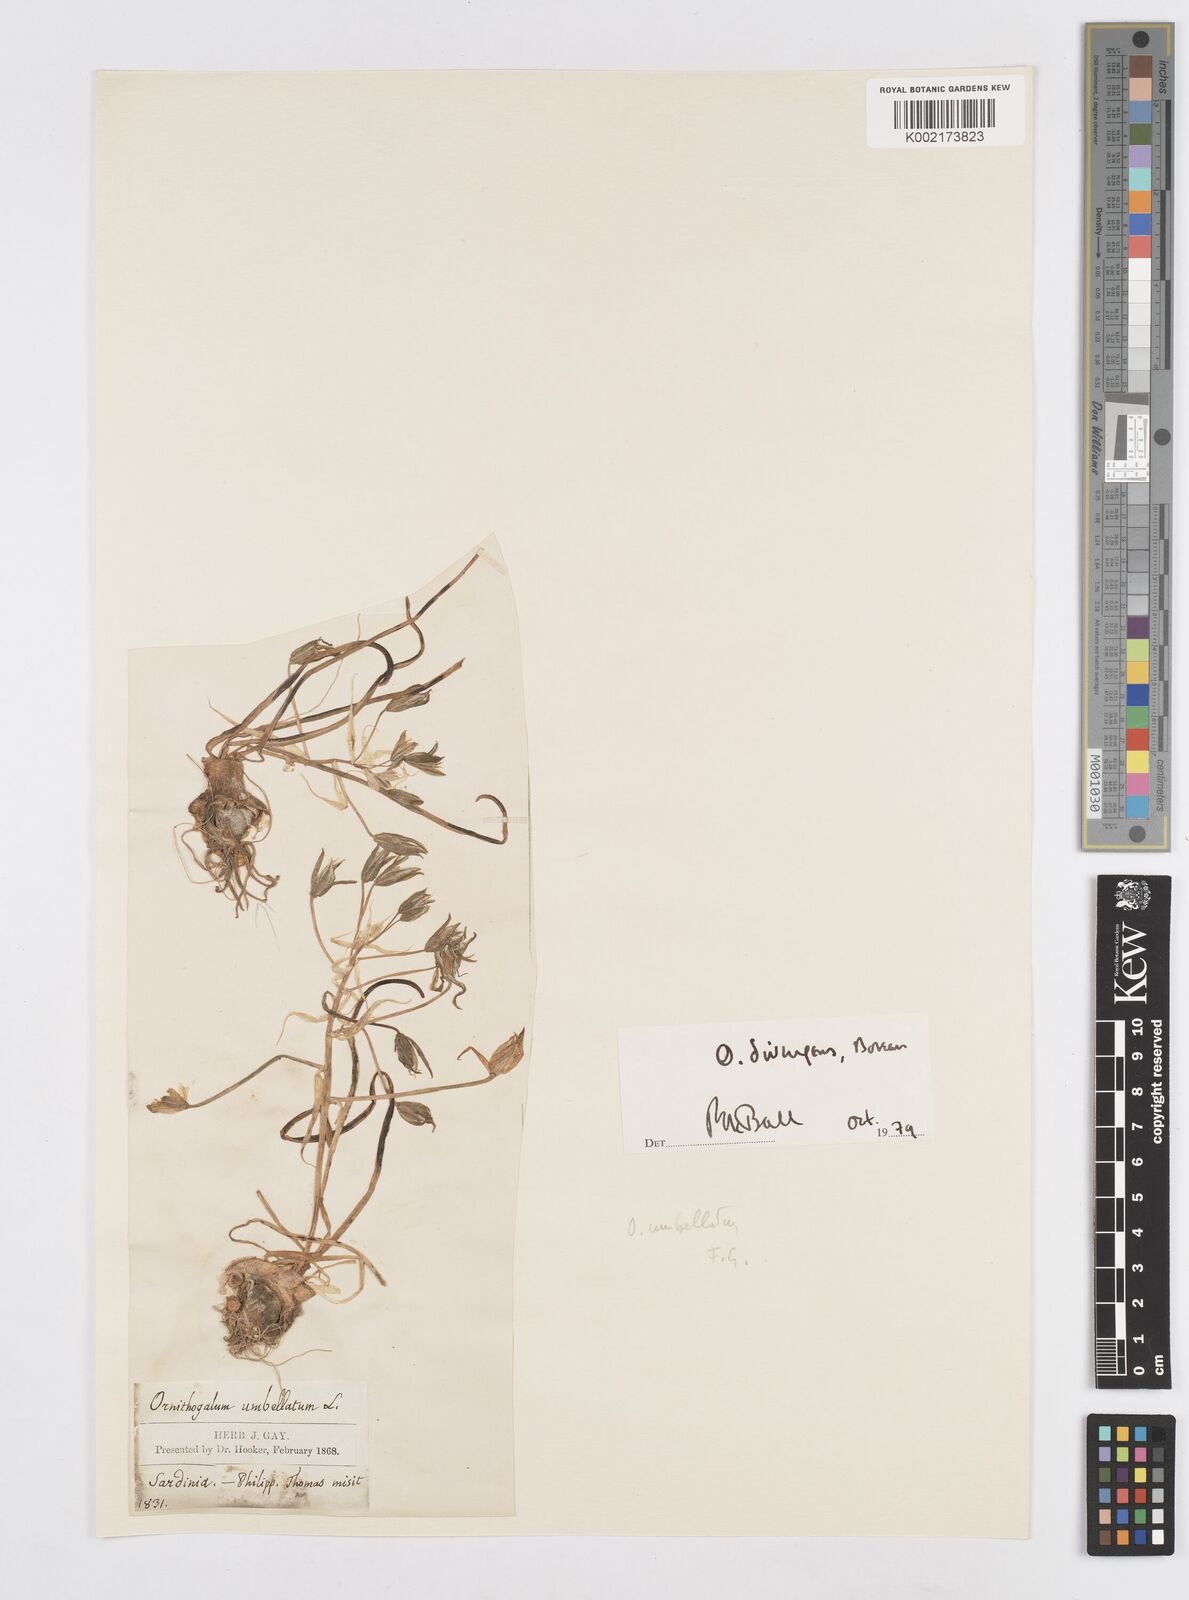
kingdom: Plantae
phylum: Tracheophyta
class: Liliopsida
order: Asparagales
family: Asparagaceae
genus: Ornithogalum
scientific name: Ornithogalum umbellatum
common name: Garden star-of-bethlehem
